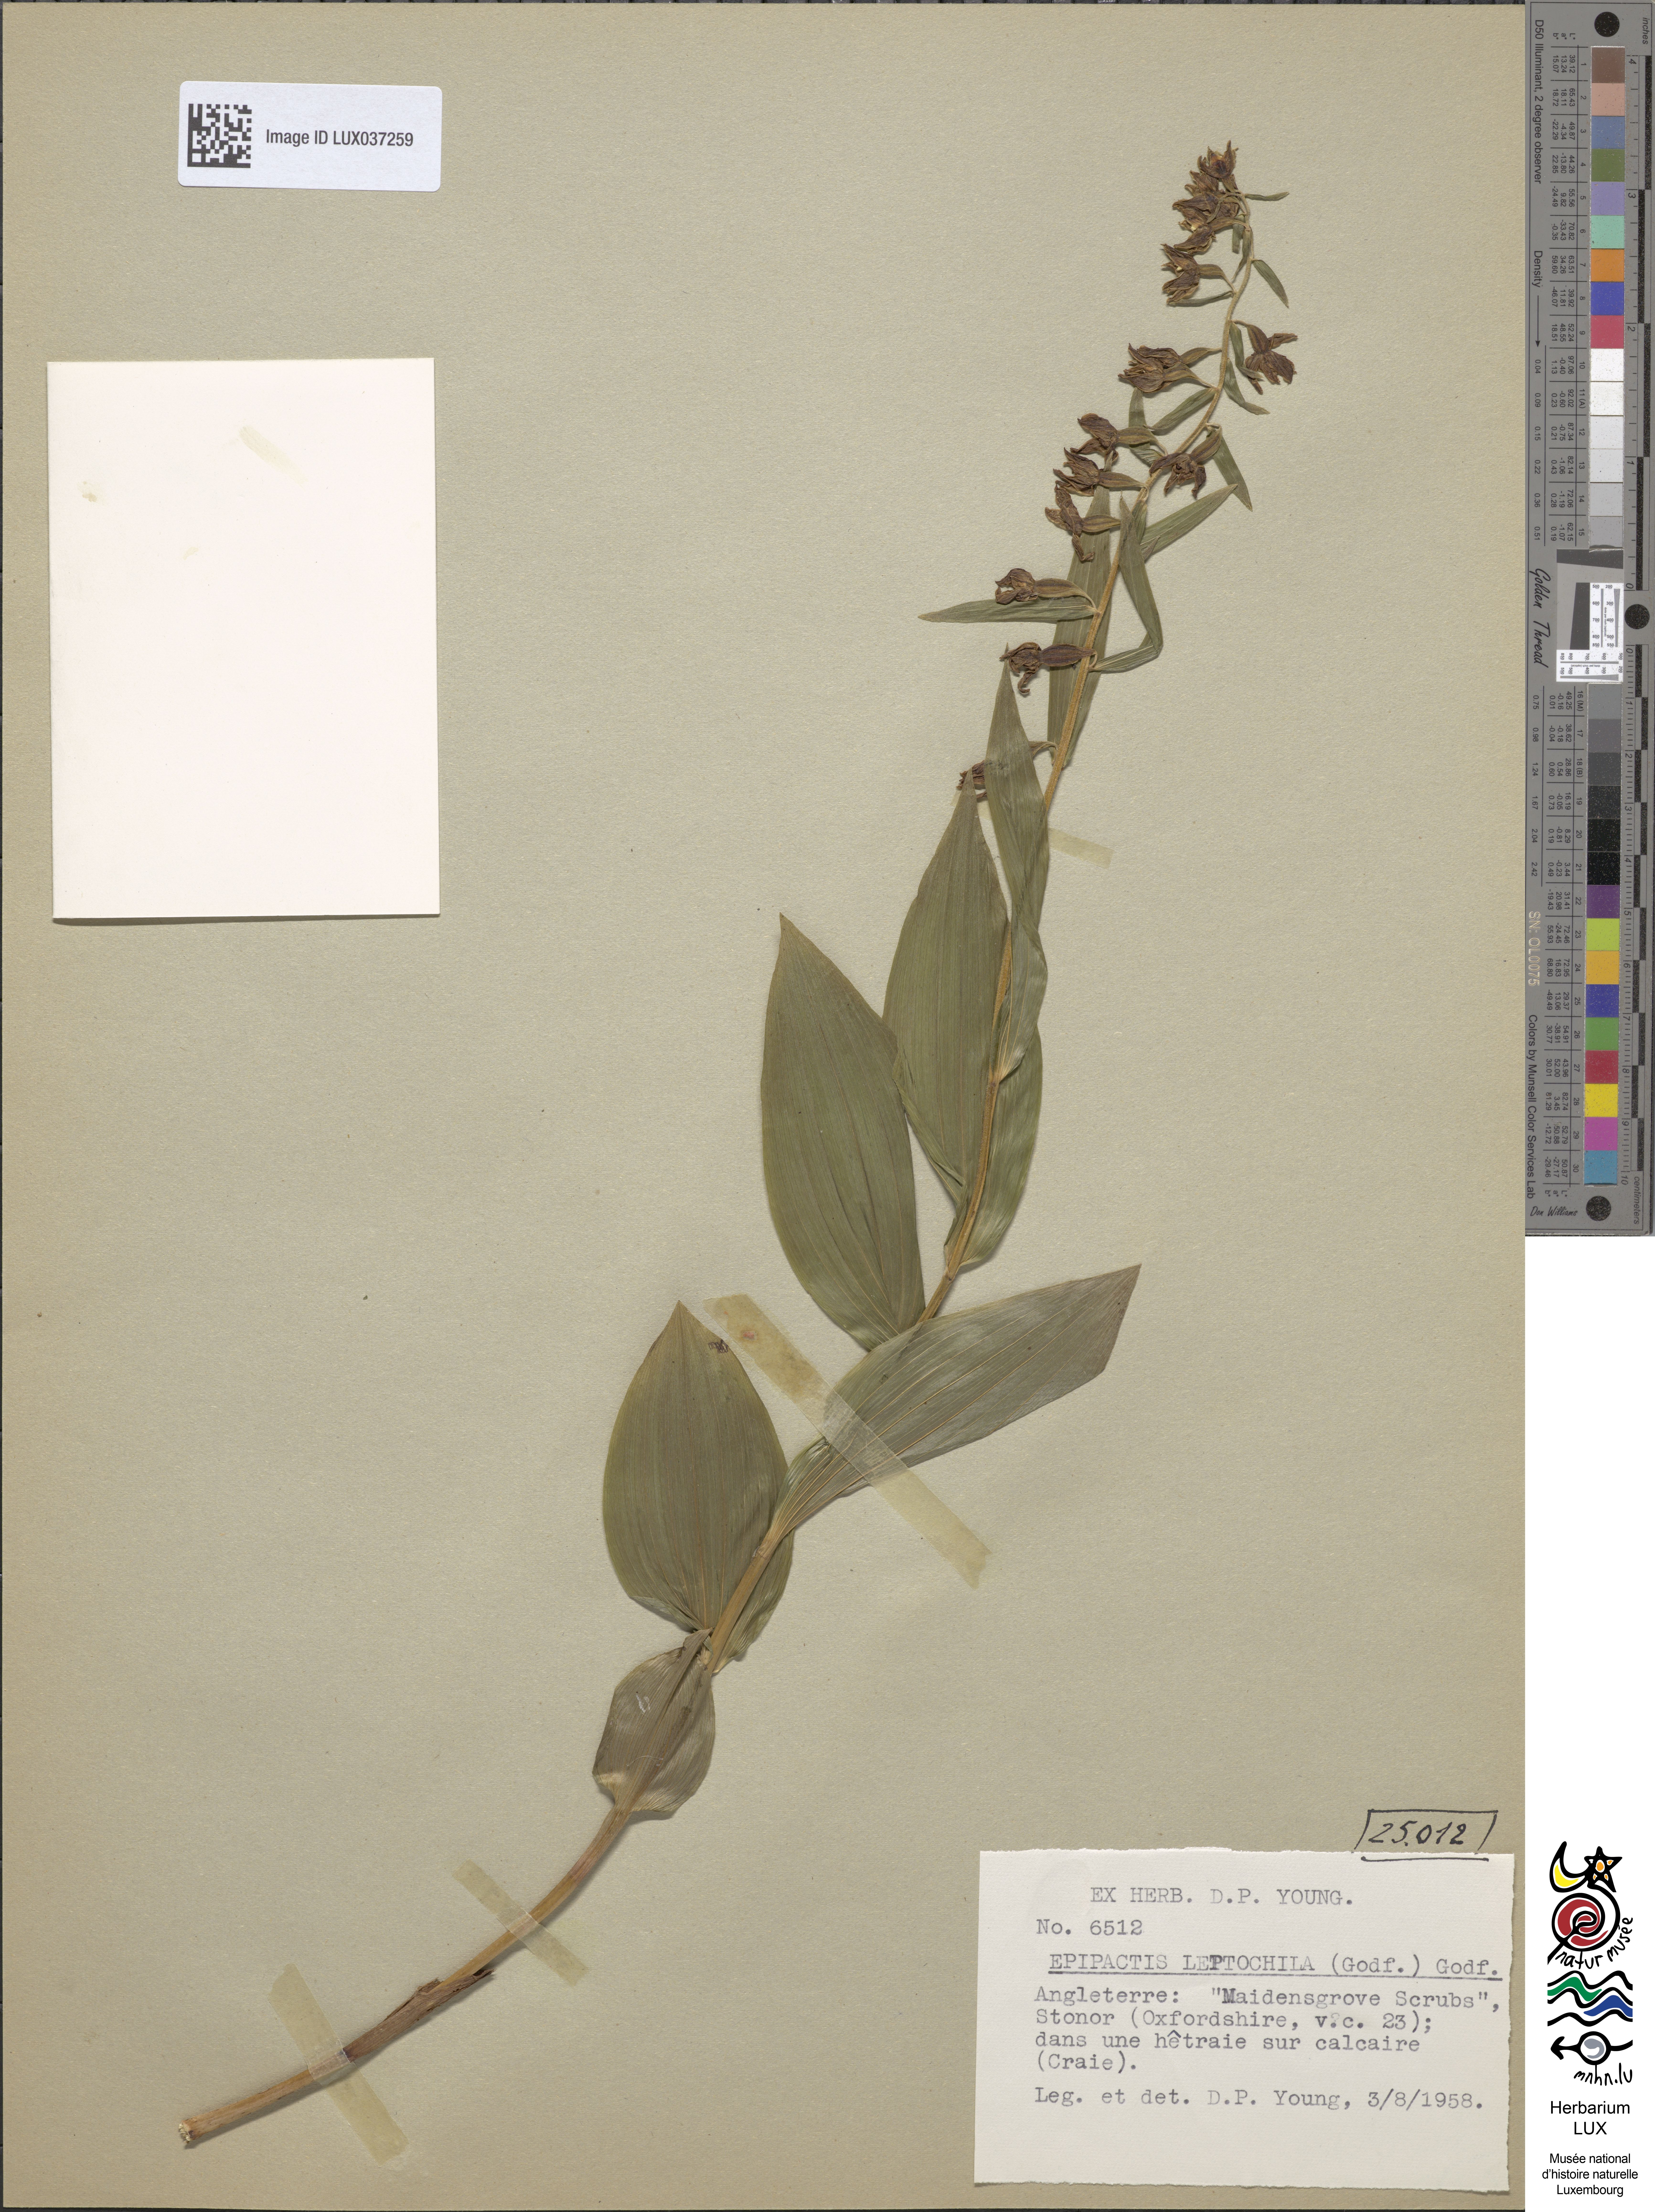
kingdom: Plantae
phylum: Tracheophyta
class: Liliopsida
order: Asparagales
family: Orchidaceae
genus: Epipactis
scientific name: Epipactis leptochila
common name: Narrow-lipped helleborine
